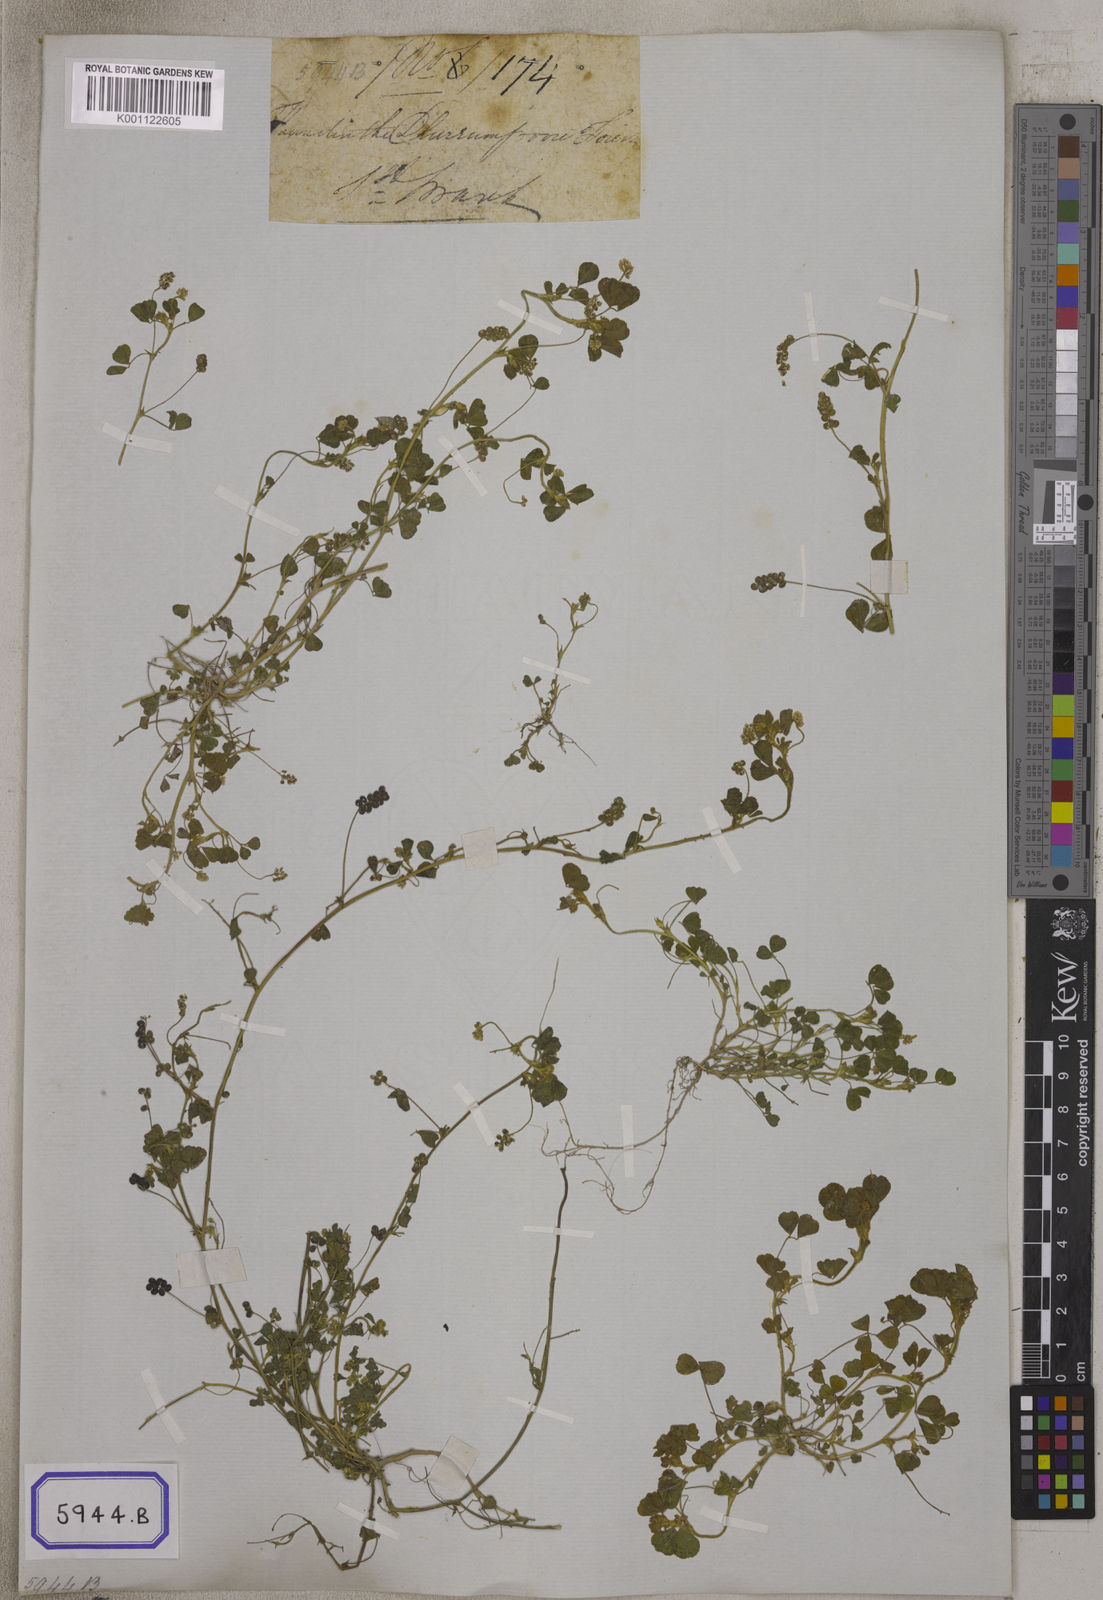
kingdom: Plantae
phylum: Tracheophyta
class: Magnoliopsida
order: Fabales
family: Fabaceae
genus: Medicago
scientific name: Medicago lupulina
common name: Black medick
